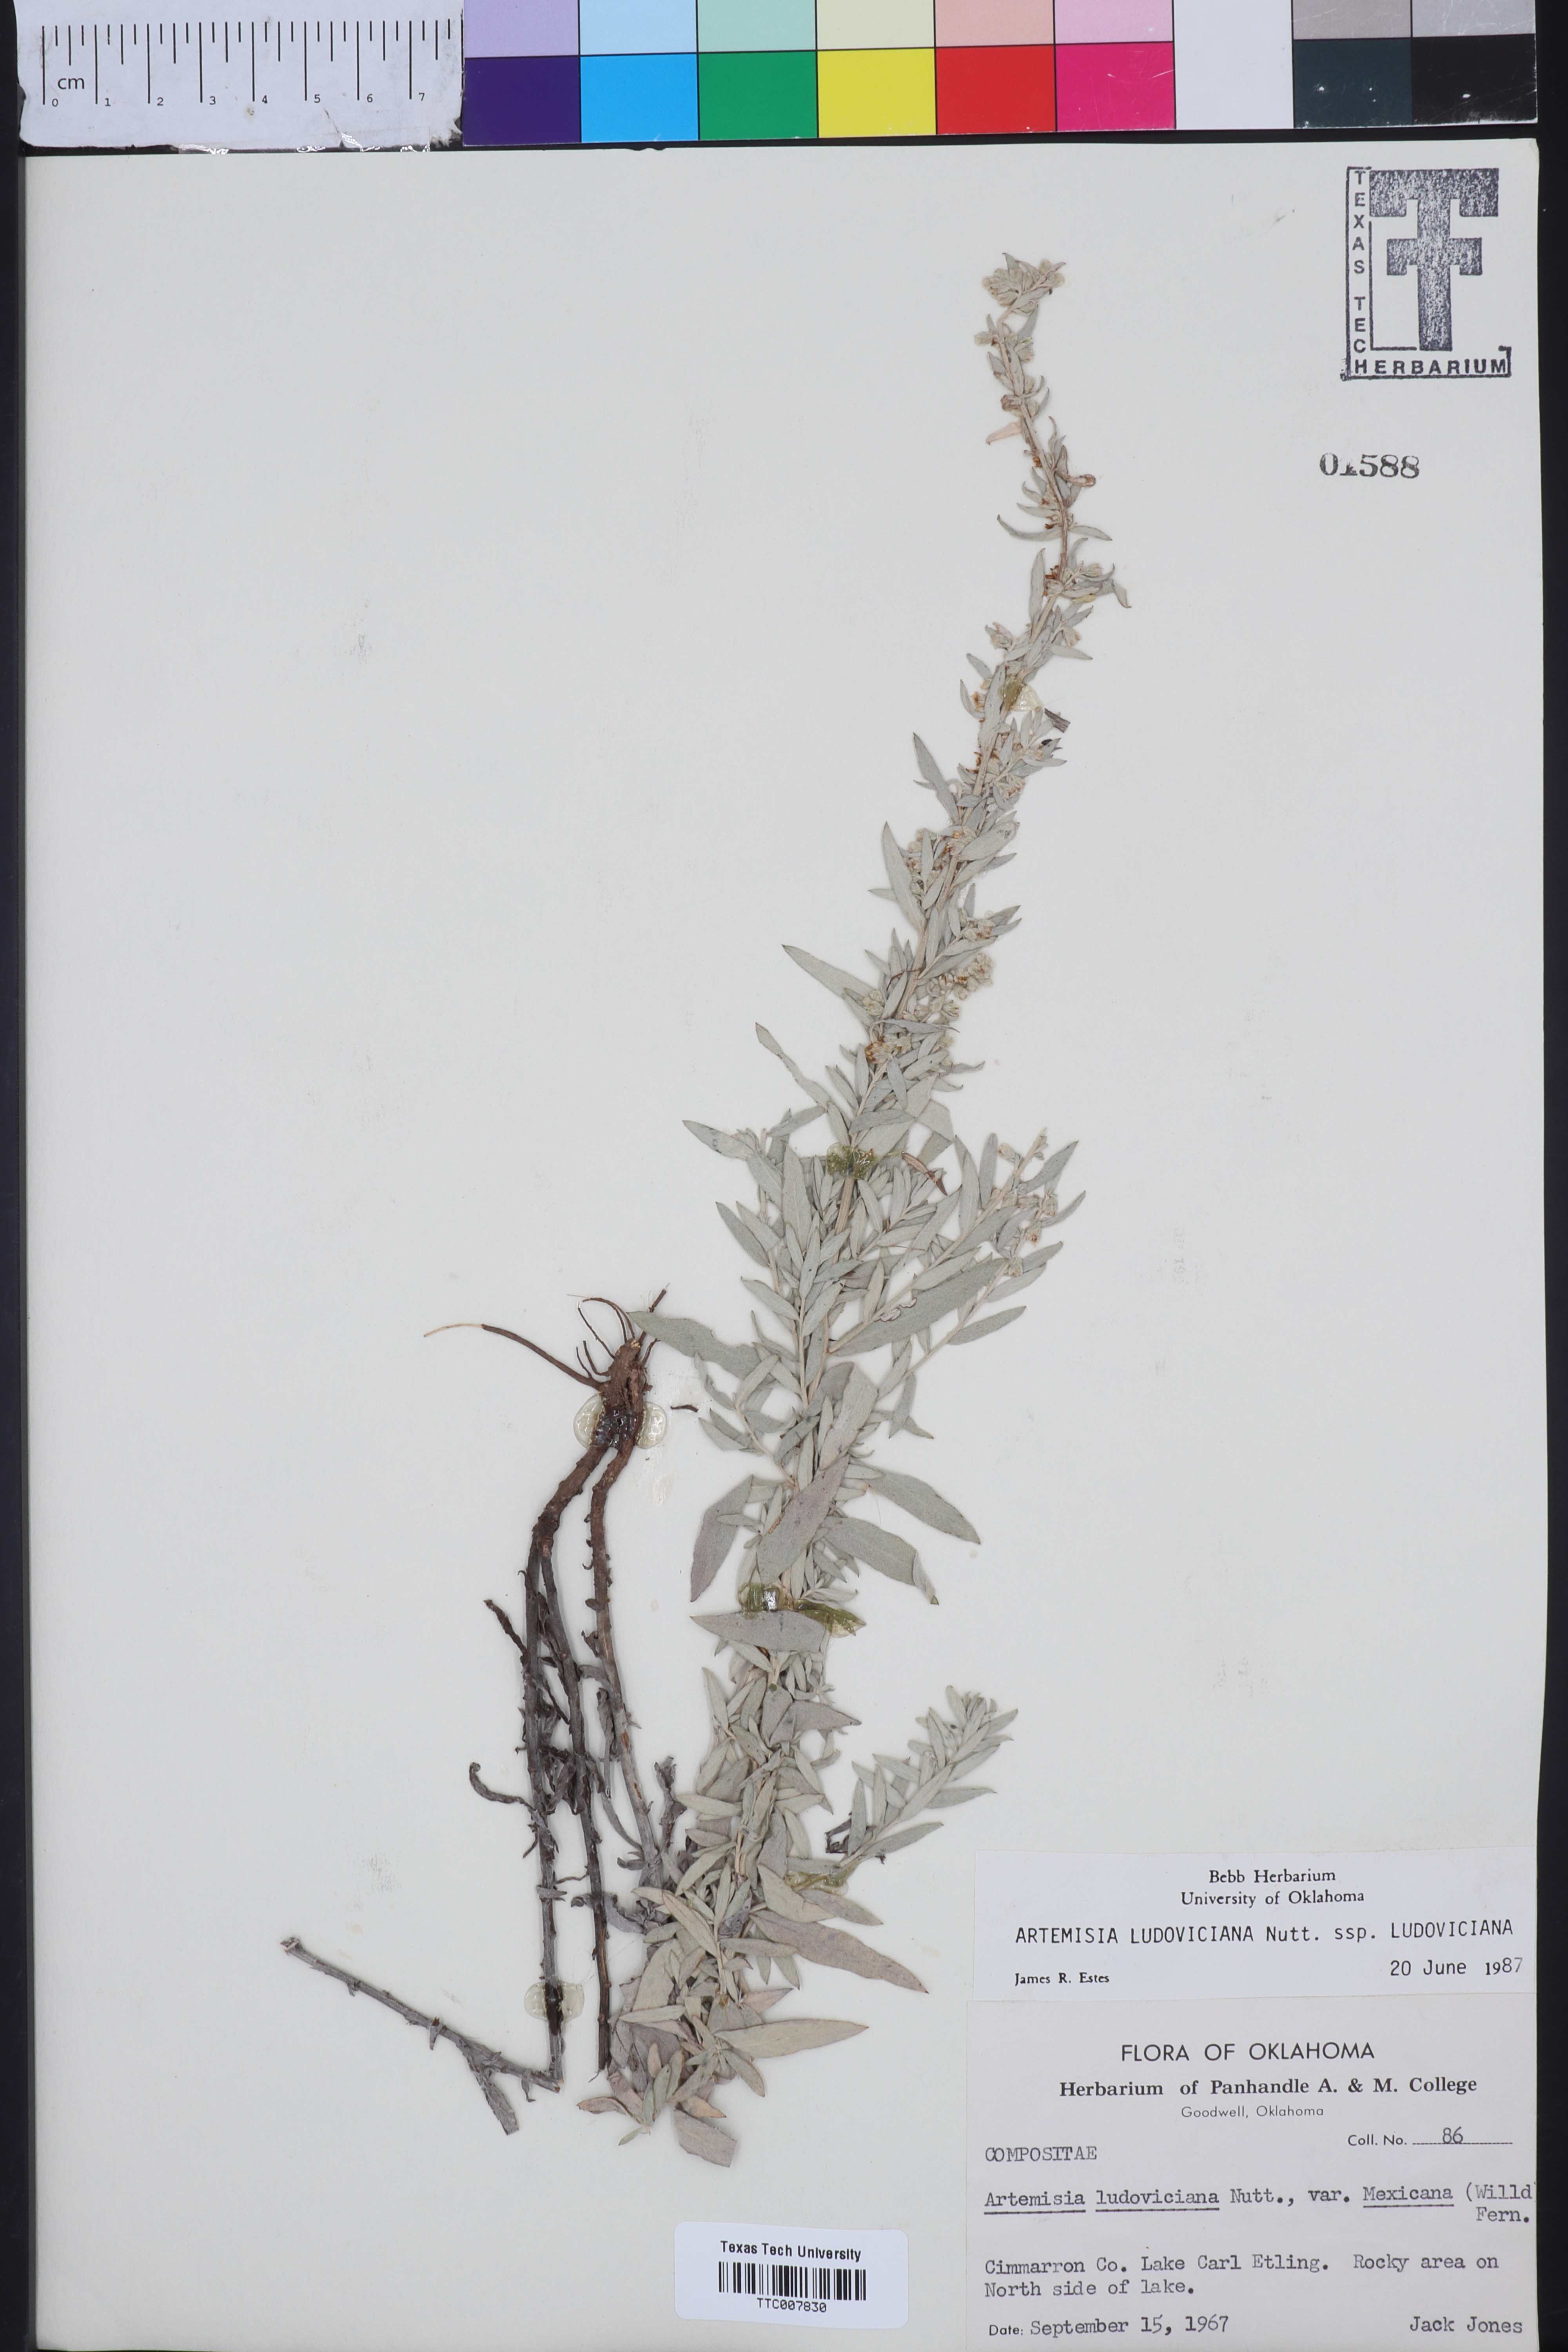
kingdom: Plantae
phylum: Tracheophyta
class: Magnoliopsida
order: Asterales
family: Asteraceae
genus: Artemisia
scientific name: Artemisia ludoviciana
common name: Western mugwort
